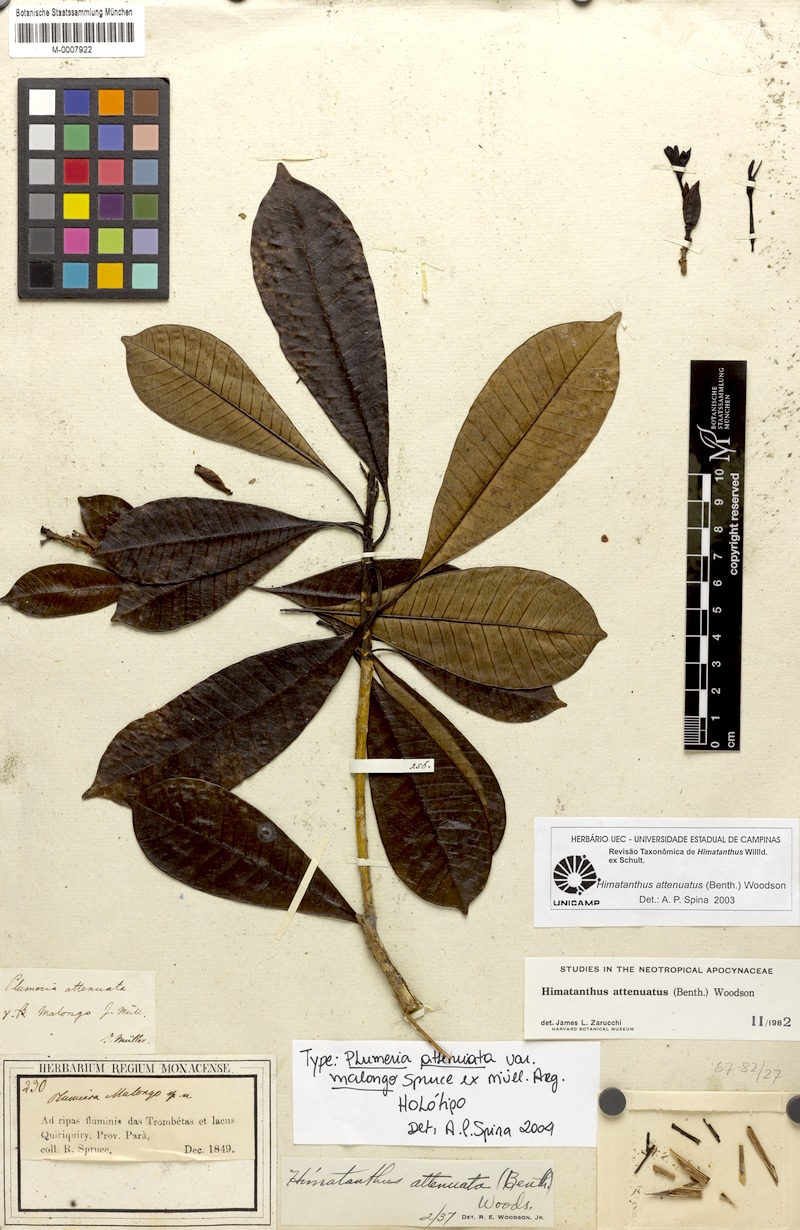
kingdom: Plantae
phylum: Tracheophyta
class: Magnoliopsida
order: Gentianales
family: Apocynaceae
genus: Himatanthus
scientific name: Himatanthus attenuatus
